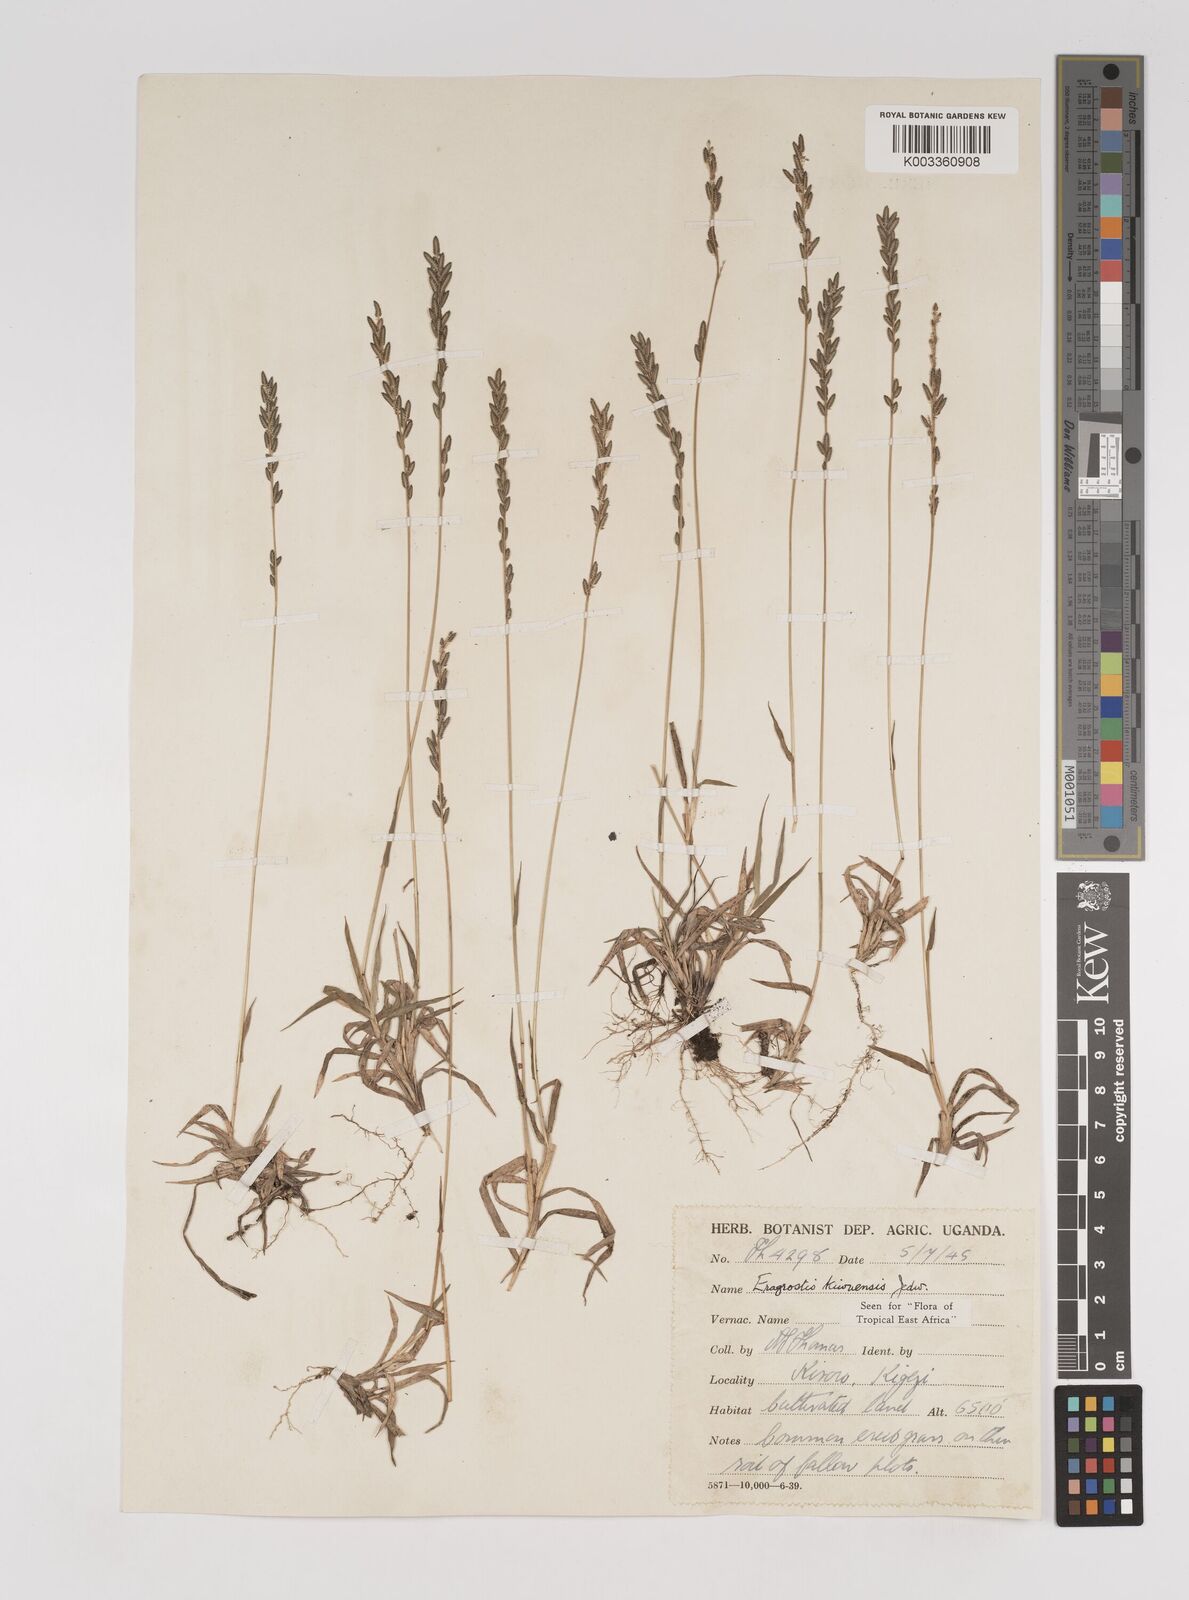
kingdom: Plantae
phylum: Tracheophyta
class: Liliopsida
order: Poales
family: Poaceae
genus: Eragrostis
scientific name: Eragrostis schweinfurthii
